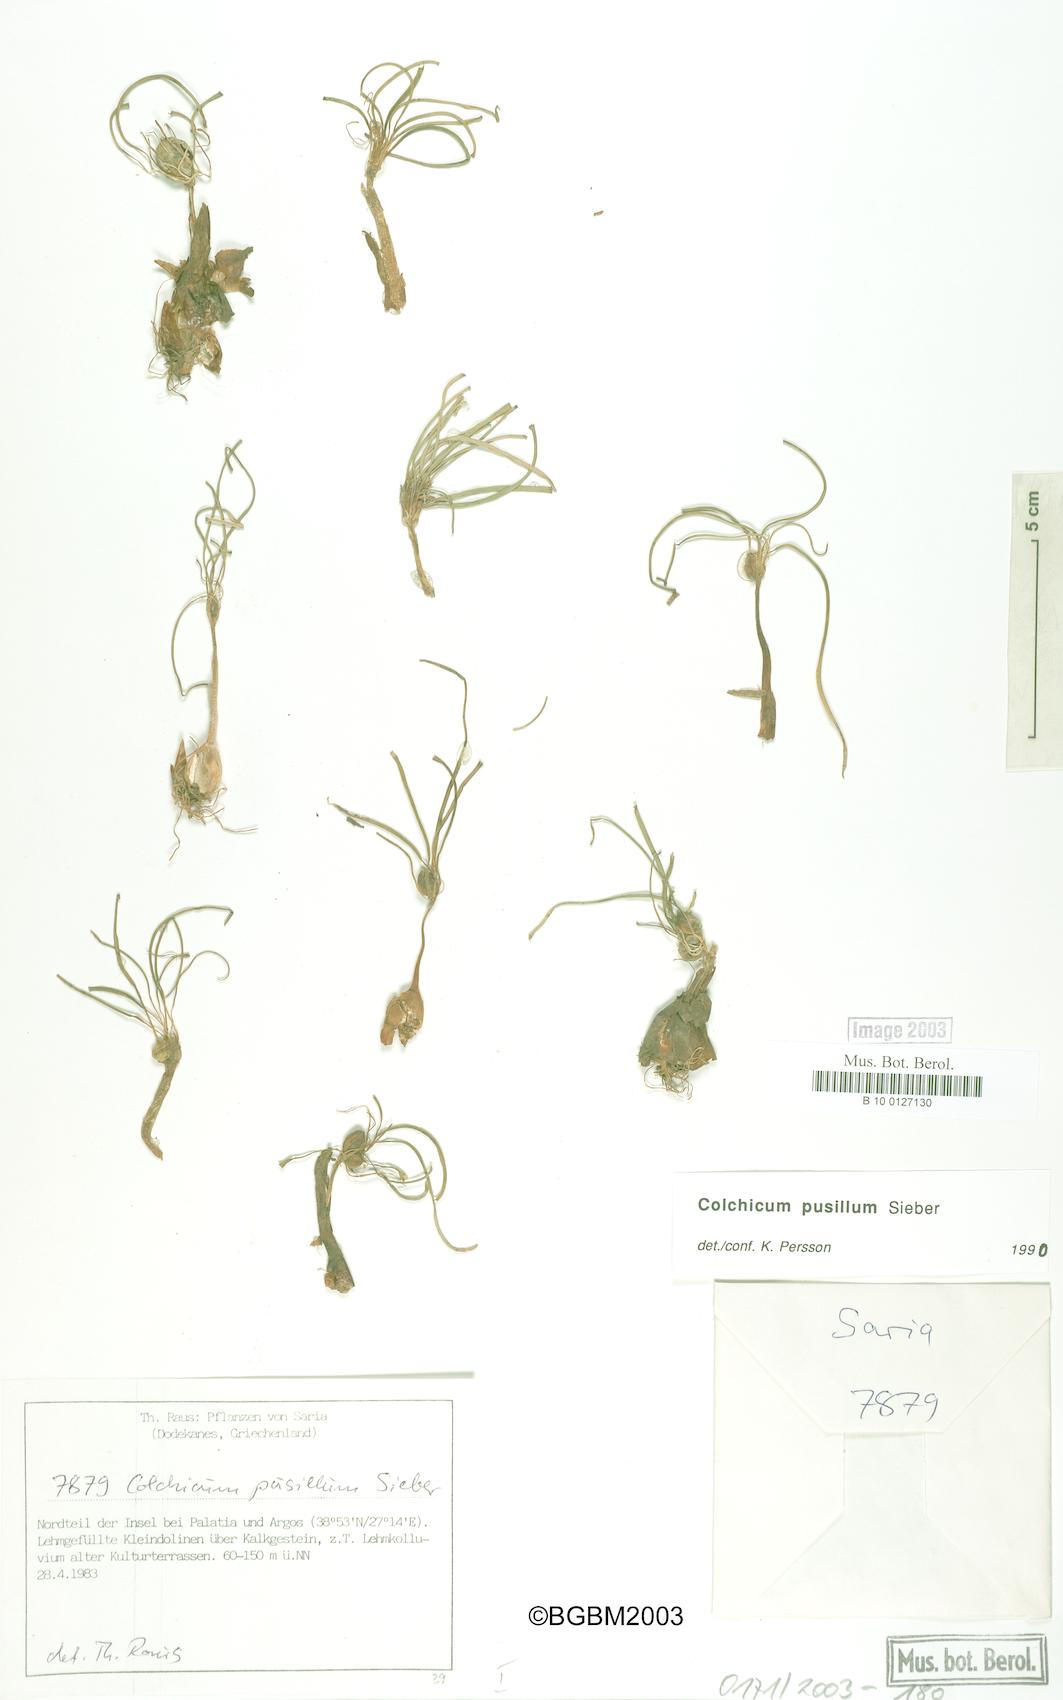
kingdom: Plantae
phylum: Tracheophyta
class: Liliopsida
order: Liliales
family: Colchicaceae
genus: Colchicum
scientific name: Colchicum pusillum
